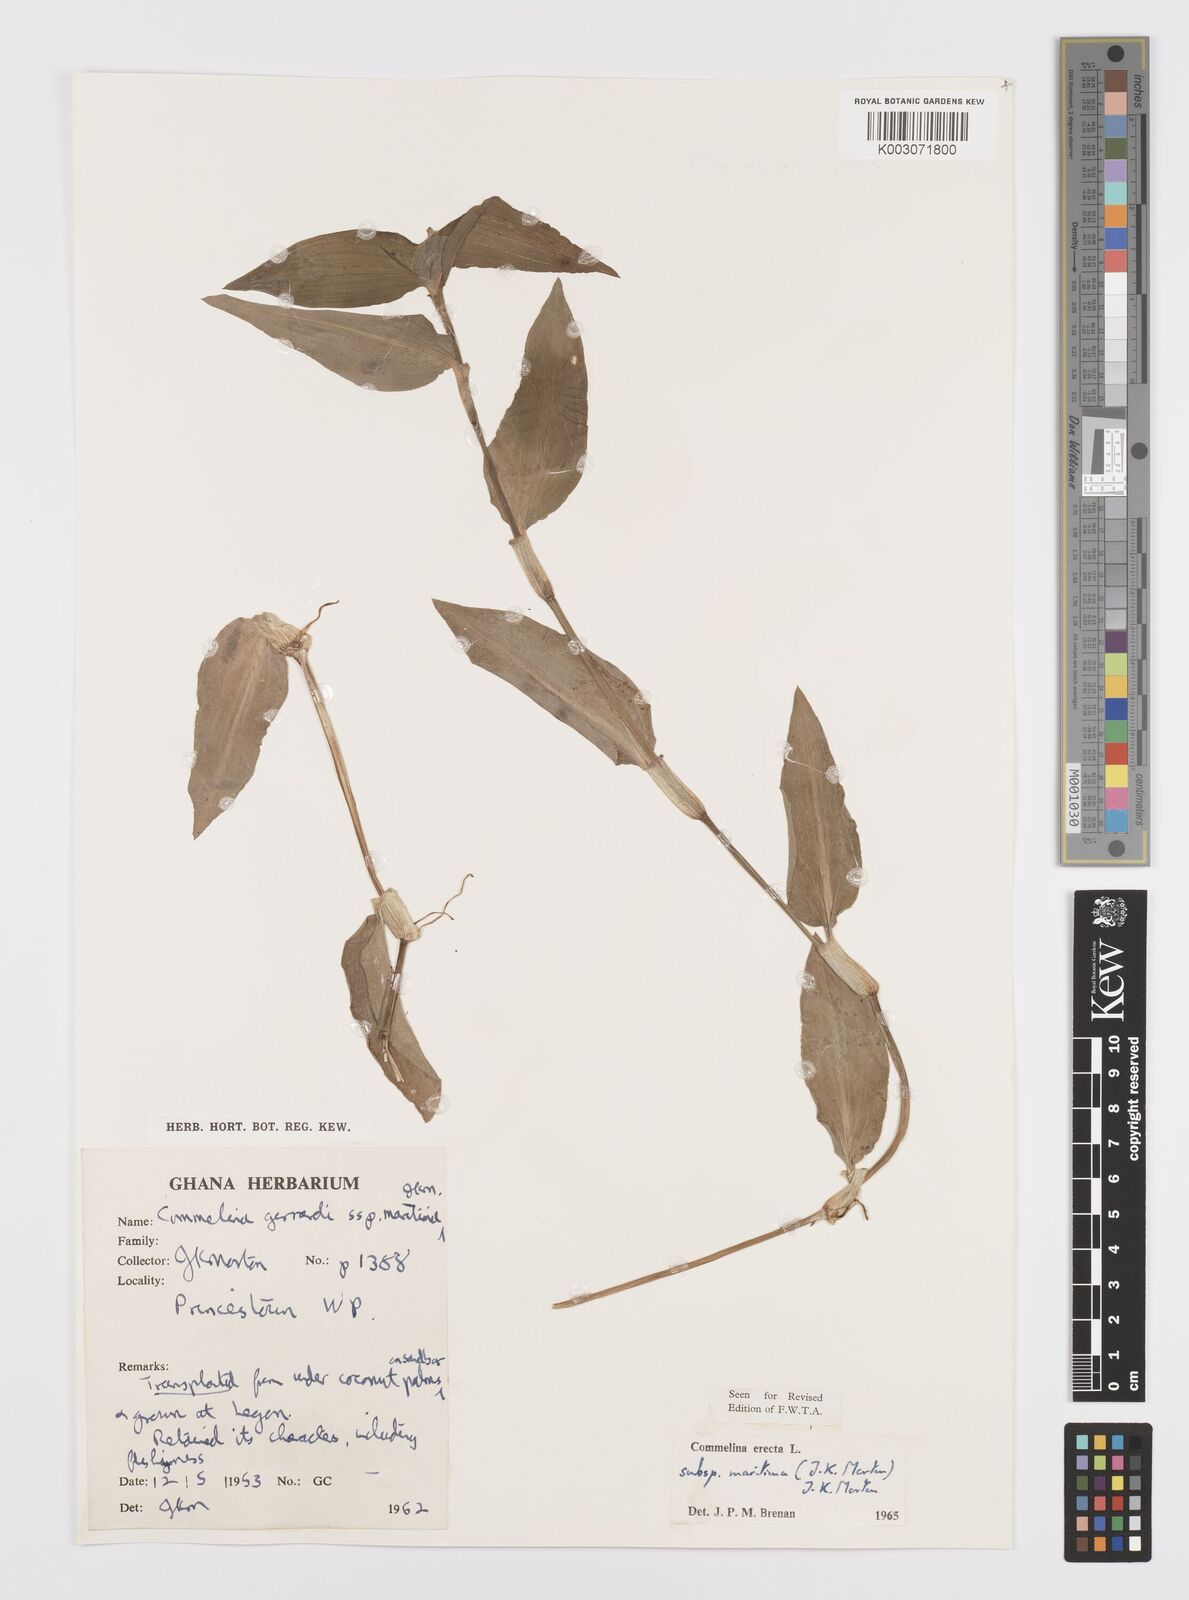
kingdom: Plantae
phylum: Tracheophyta
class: Liliopsida
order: Commelinales
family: Commelinaceae
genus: Commelina
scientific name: Commelina erecta
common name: Blousel blommetjie
